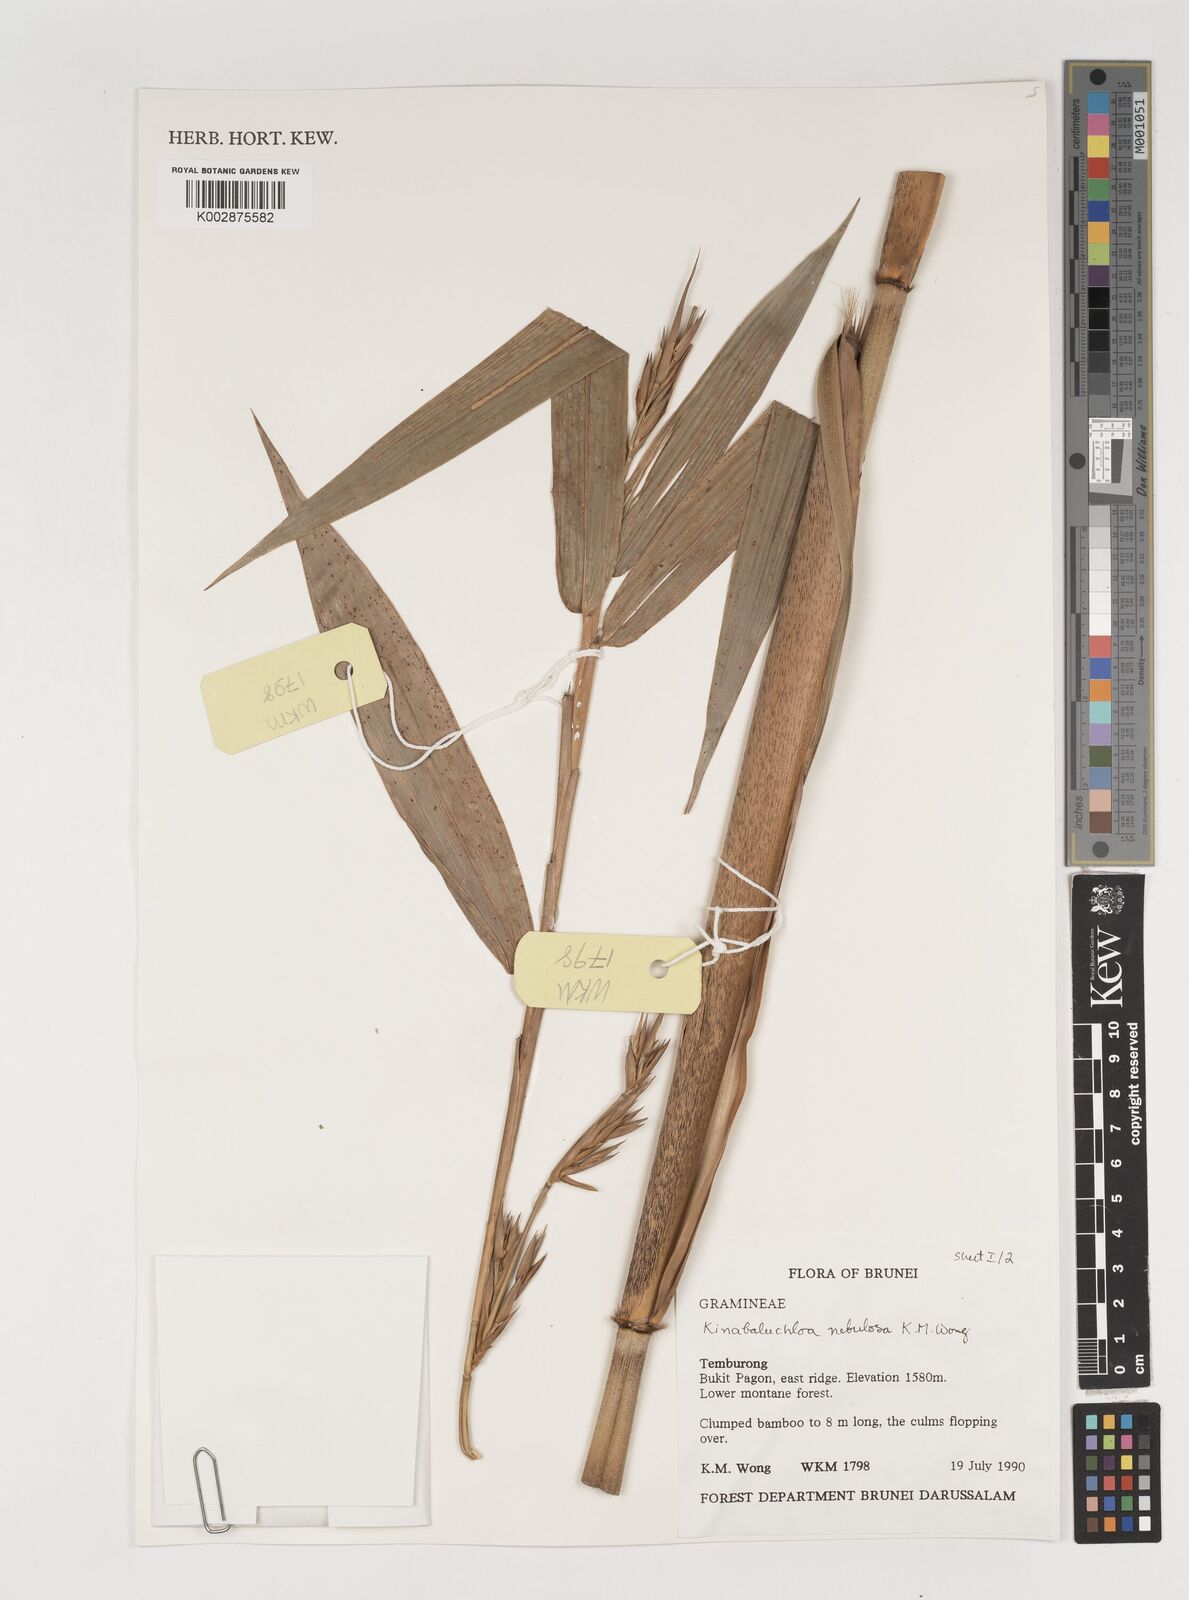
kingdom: Plantae
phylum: Tracheophyta
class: Liliopsida
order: Poales
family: Poaceae
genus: Kinabaluchloa
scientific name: Kinabaluchloa nebulosa
